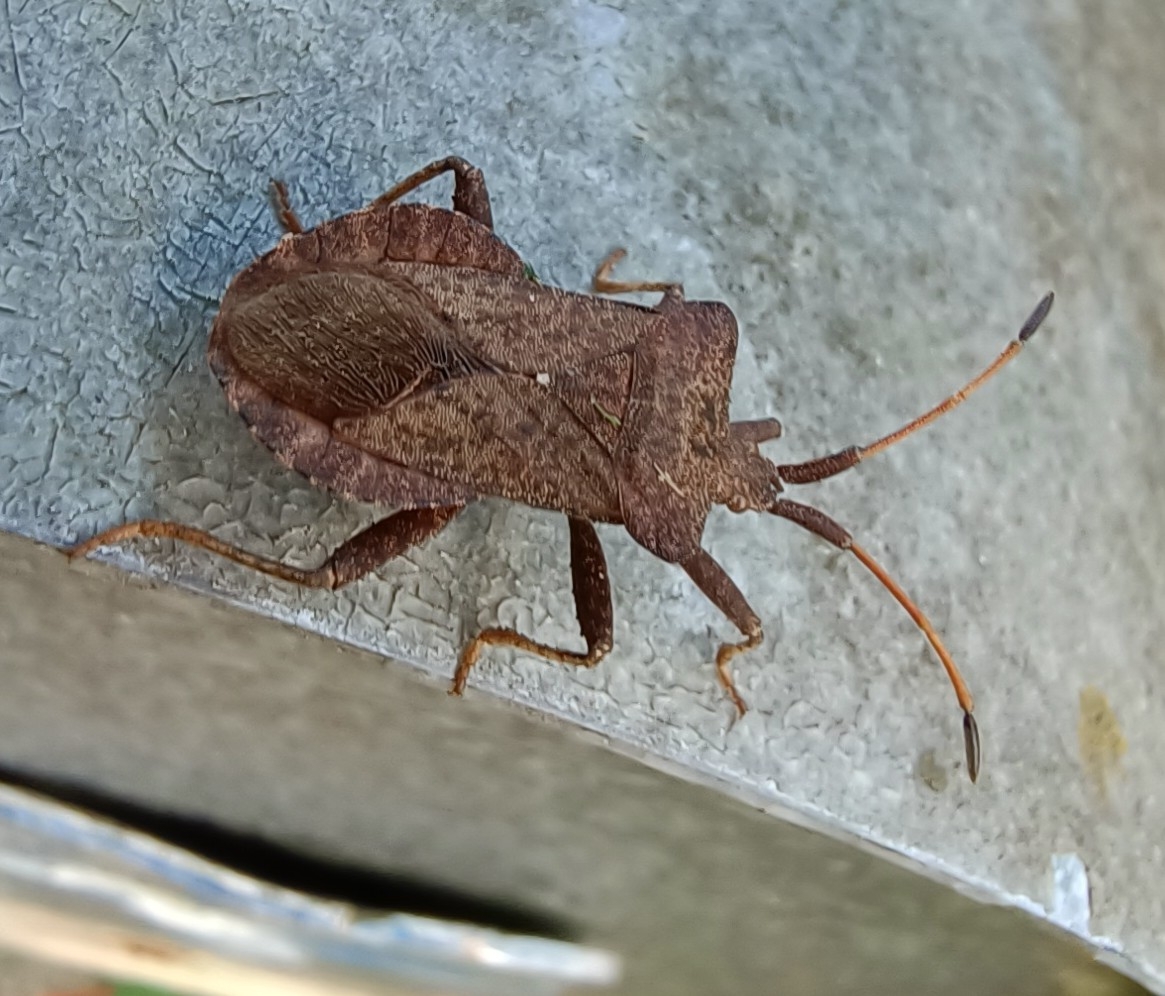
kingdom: Animalia
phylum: Arthropoda
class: Insecta
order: Hemiptera
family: Coreidae
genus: Coreus
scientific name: Coreus marginatus
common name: Skræppetæge
